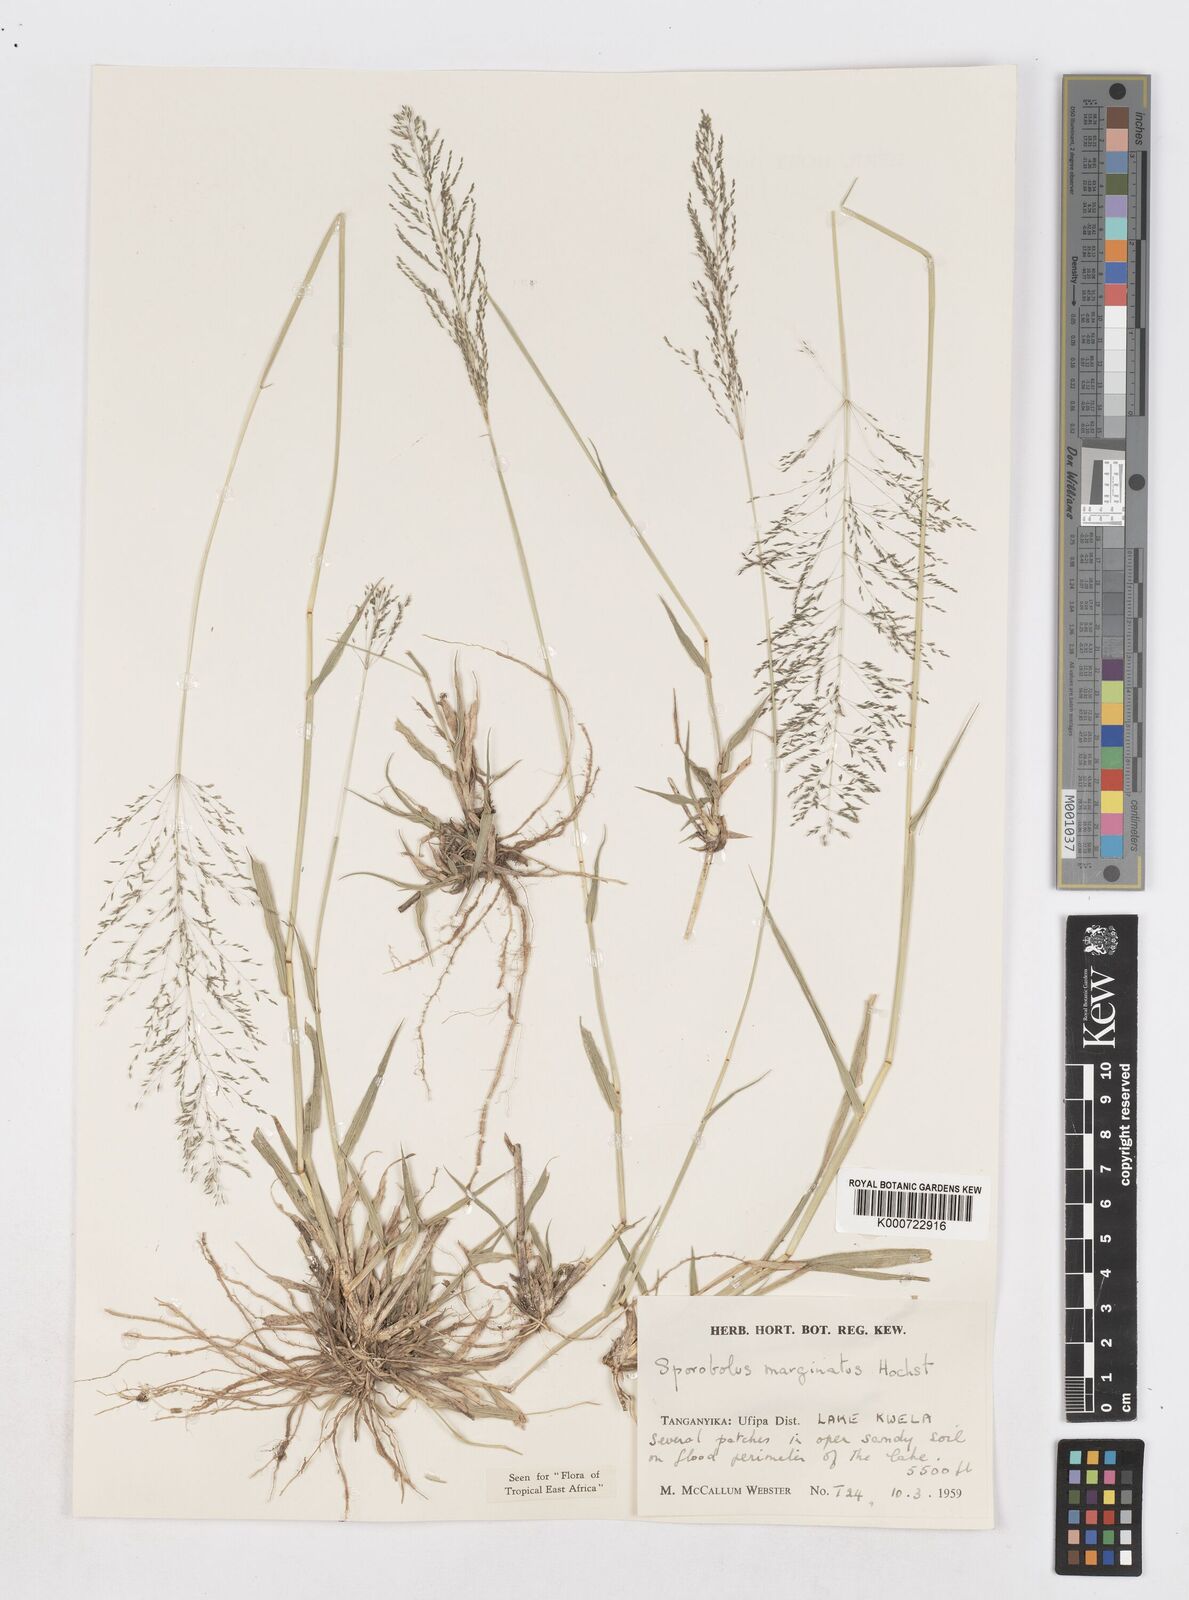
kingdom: Plantae
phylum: Tracheophyta
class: Liliopsida
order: Poales
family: Poaceae
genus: Sporobolus
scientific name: Sporobolus ioclados
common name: Pan dropseed
